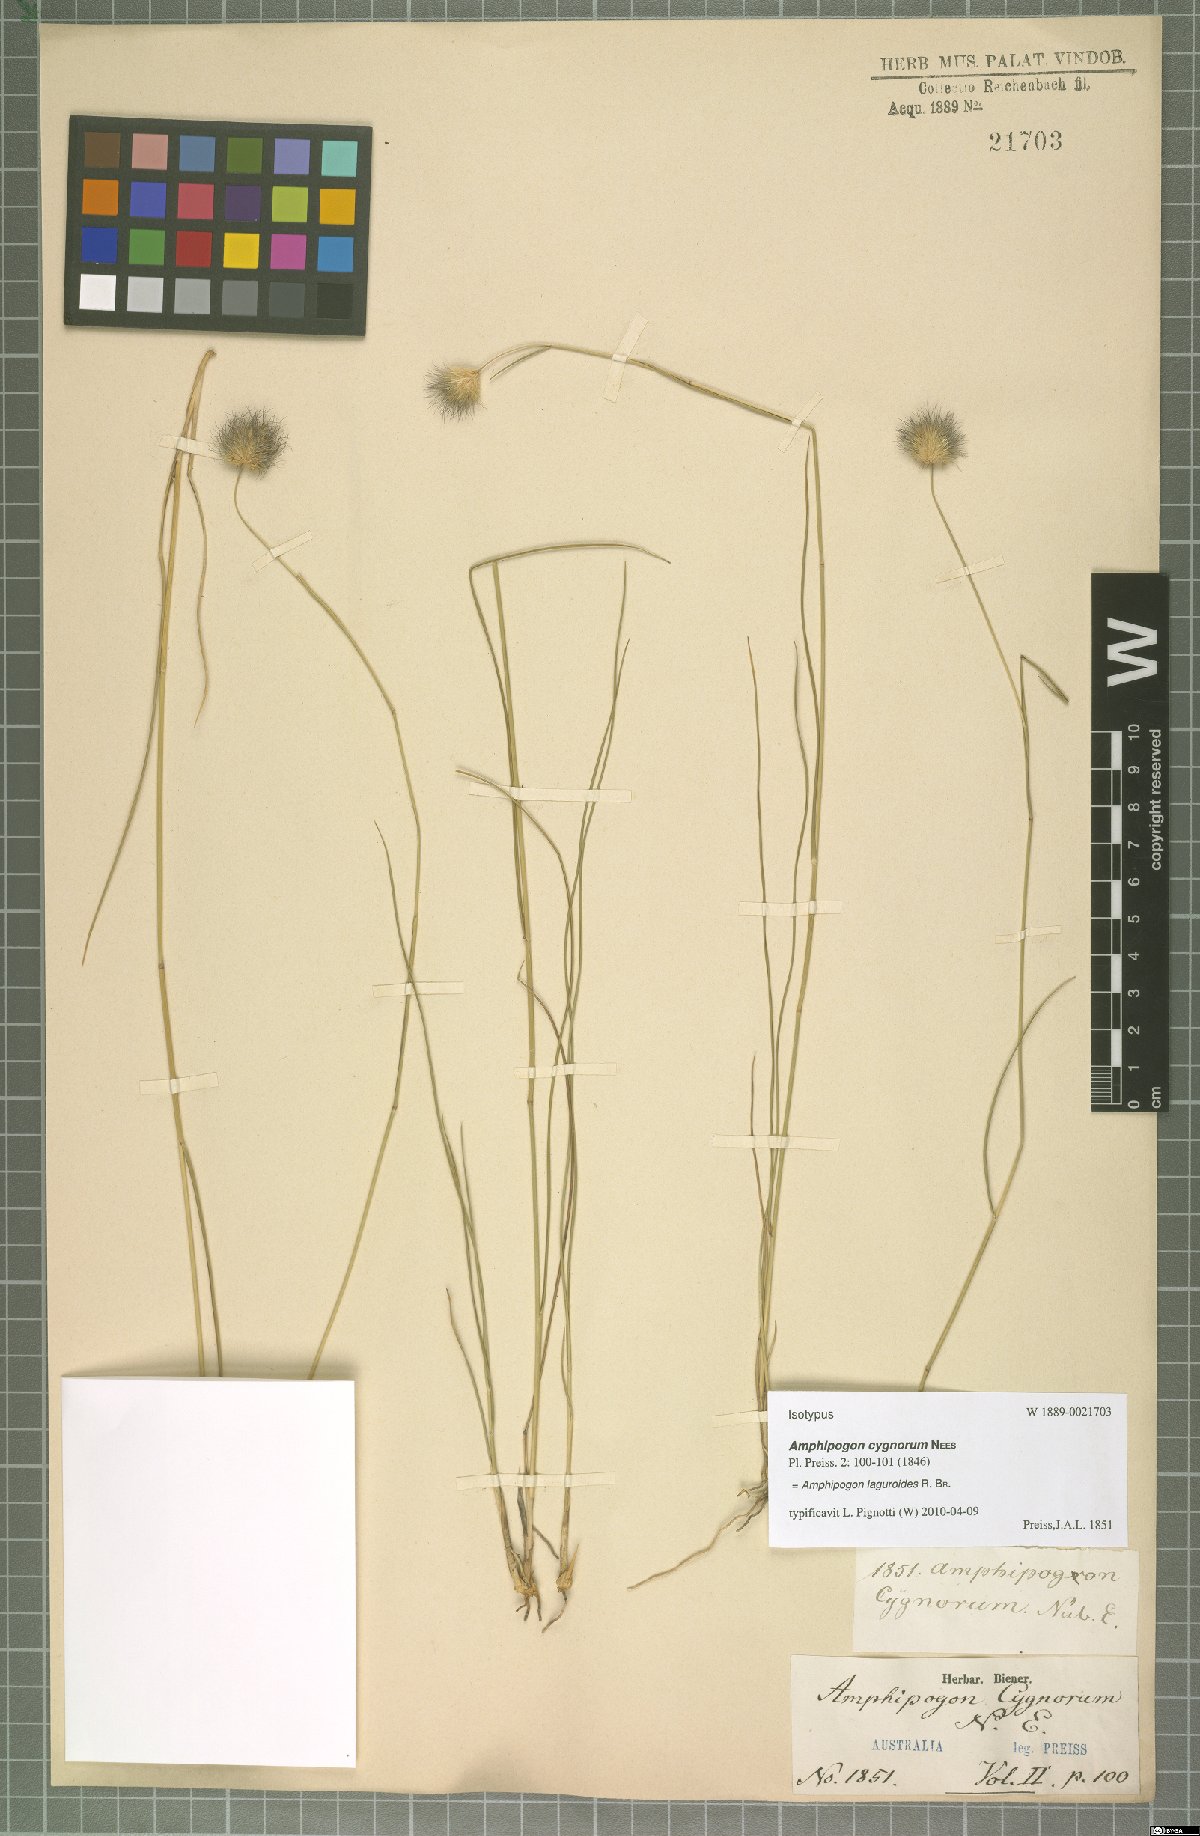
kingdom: Plantae
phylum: Tracheophyta
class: Liliopsida
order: Poales
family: Poaceae
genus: Amphipogon
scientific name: Amphipogon laguroides
